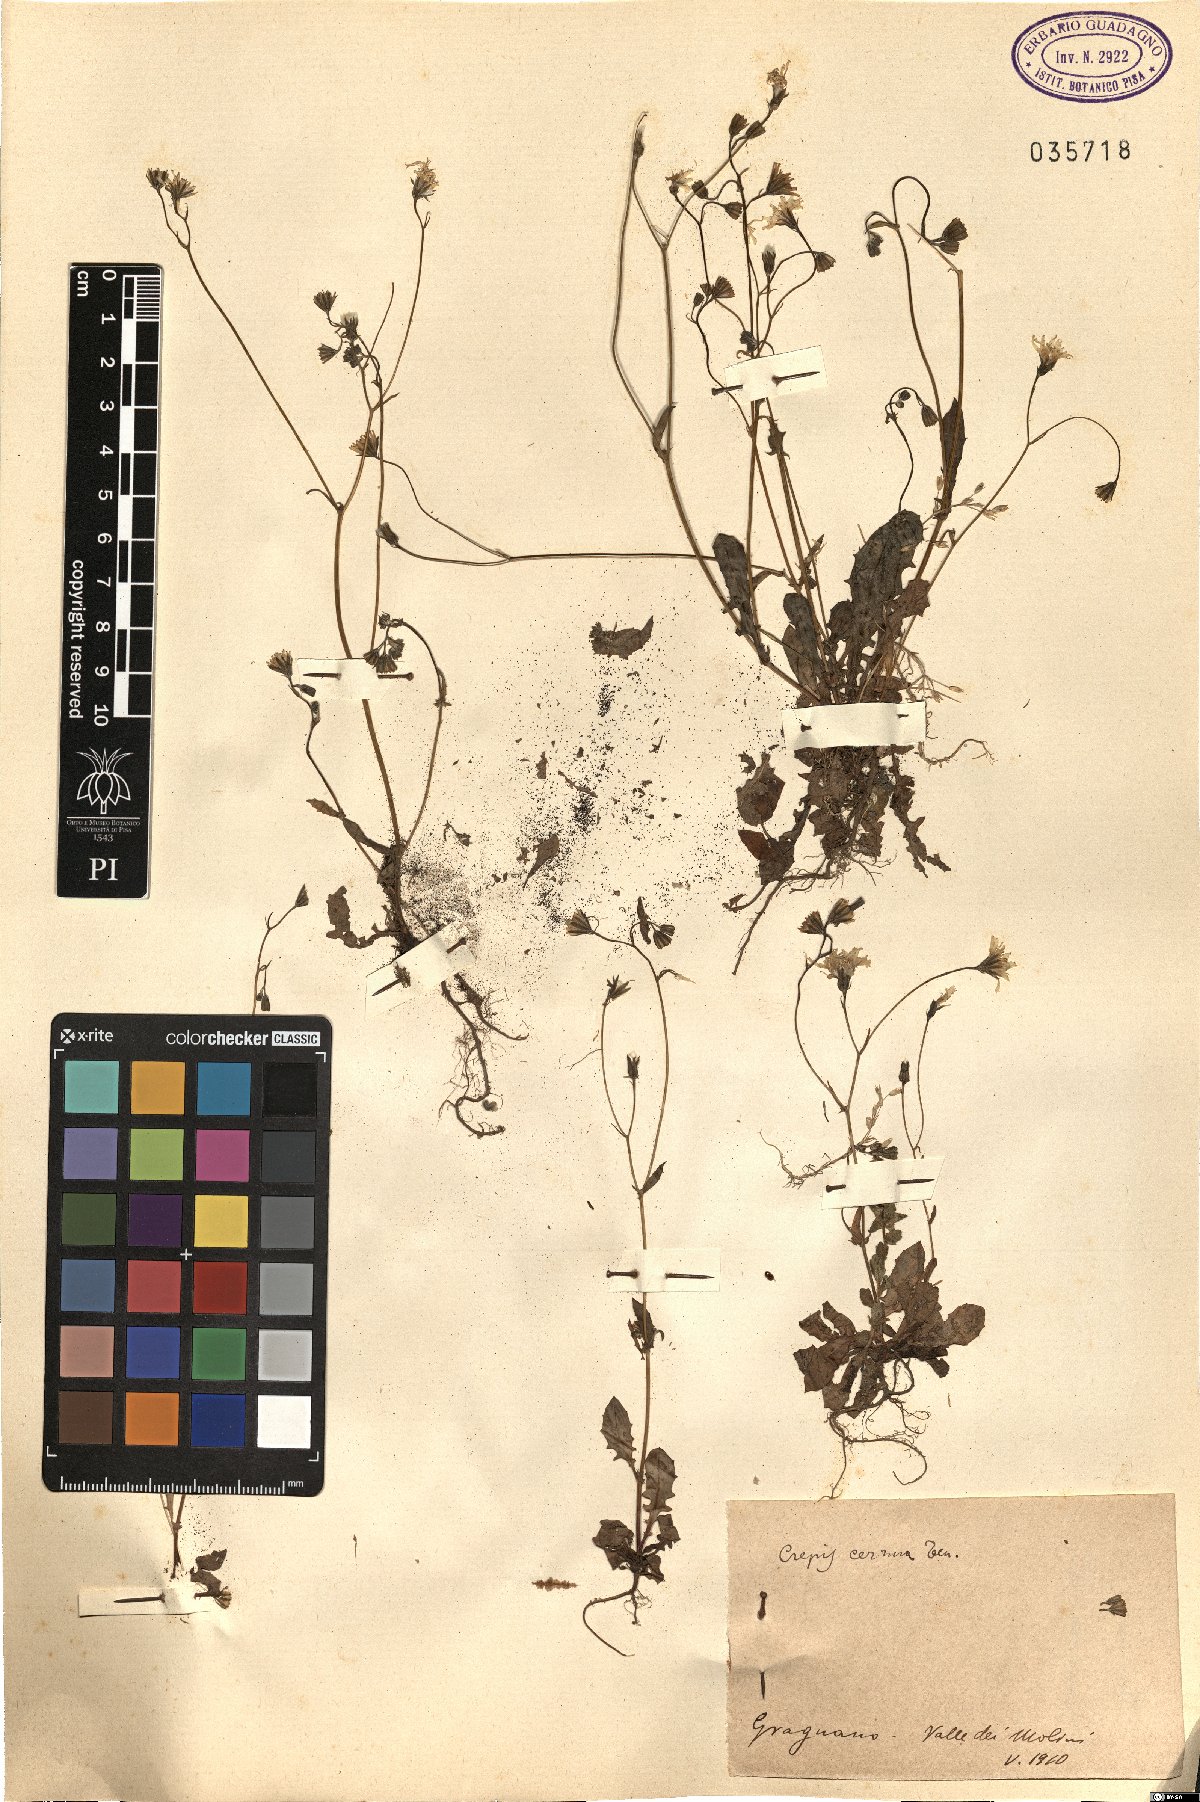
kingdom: Plantae
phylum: Tracheophyta
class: Magnoliopsida
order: Asterales
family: Asteraceae
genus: Crepis
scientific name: Crepis neglecta
